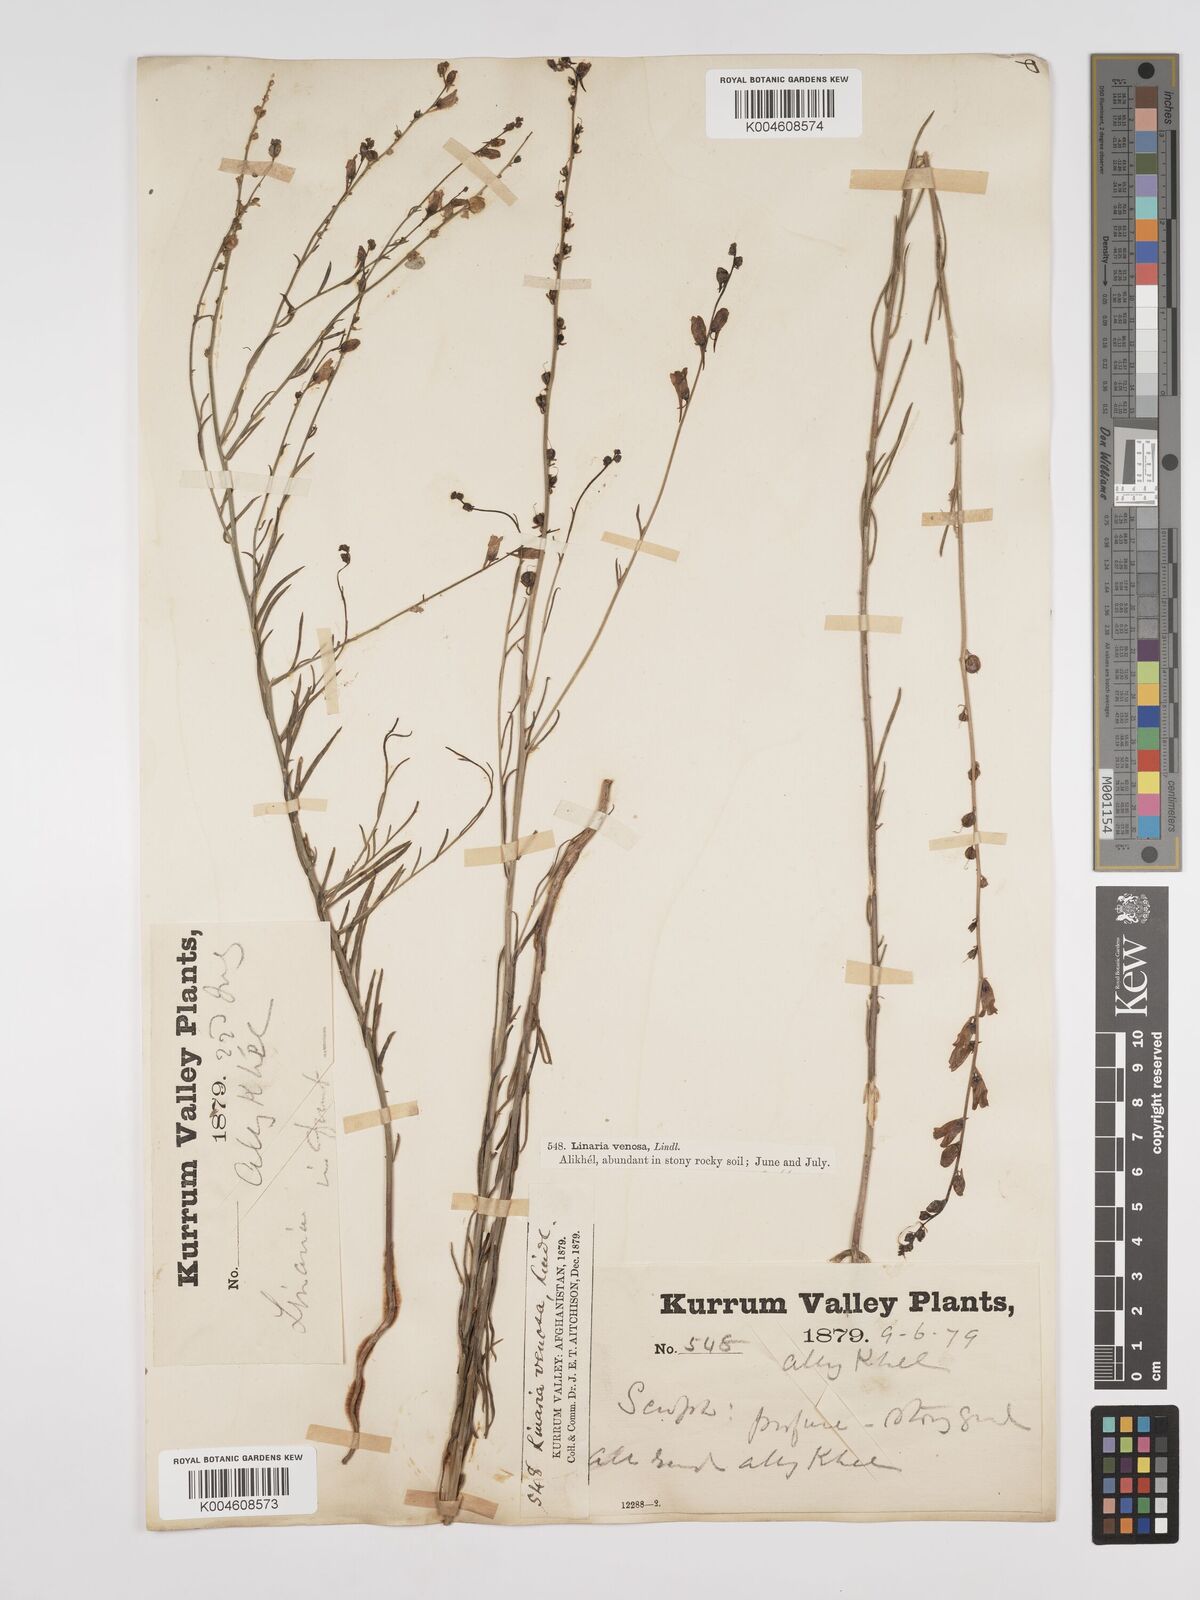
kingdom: Plantae
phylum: Tracheophyta
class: Magnoliopsida
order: Lamiales
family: Plantaginaceae
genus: Kickxia
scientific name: Kickxia
